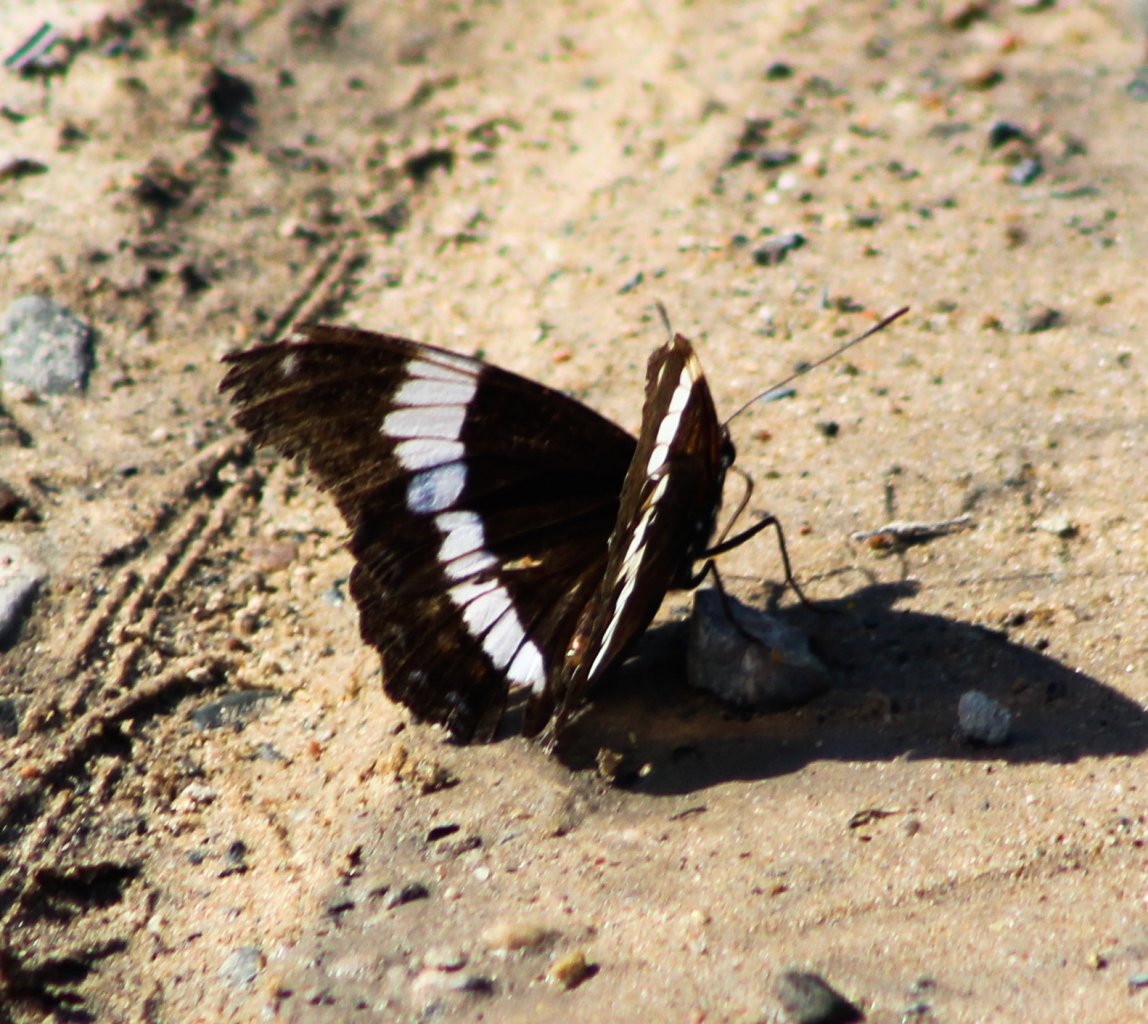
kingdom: Animalia
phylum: Arthropoda
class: Insecta
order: Lepidoptera
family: Nymphalidae
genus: Limenitis
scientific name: Limenitis arthemis
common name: Red-spotted Admiral
